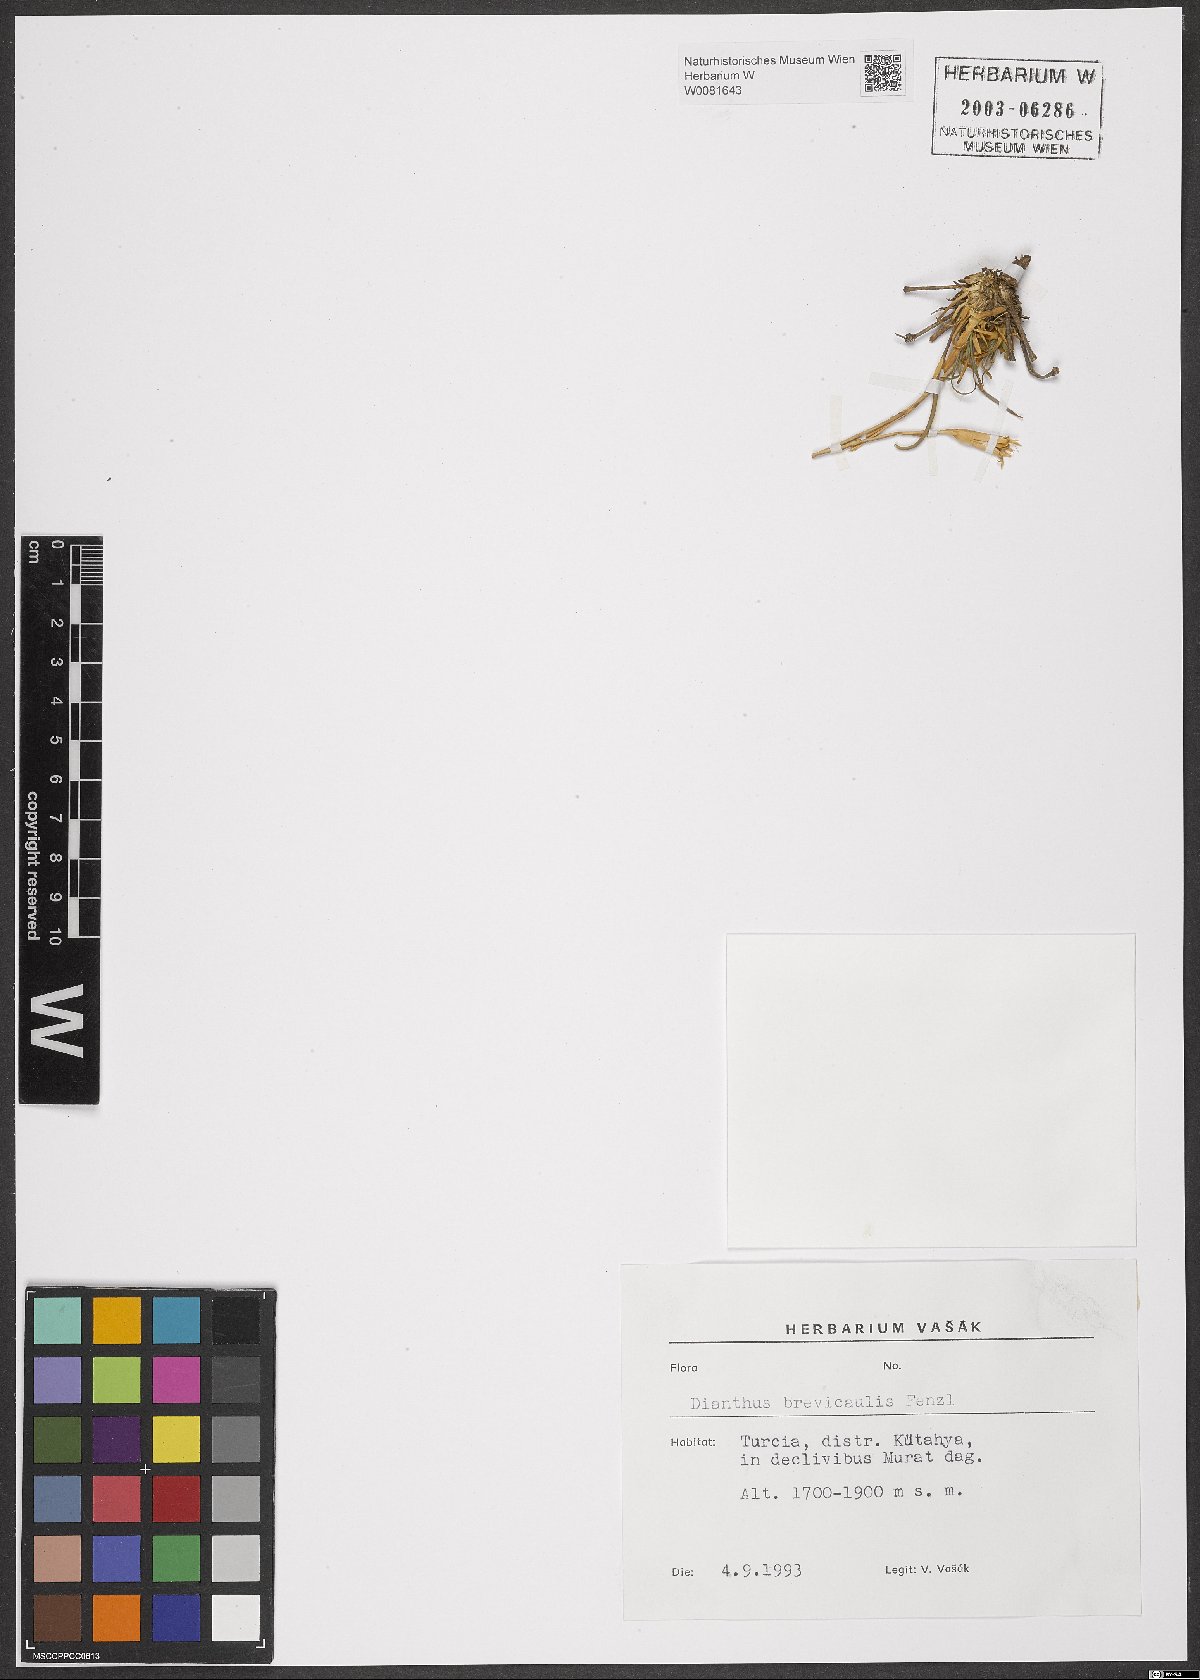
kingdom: Plantae
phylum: Tracheophyta
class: Magnoliopsida
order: Caryophyllales
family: Caryophyllaceae
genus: Dianthus
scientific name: Dianthus brevicaulis
